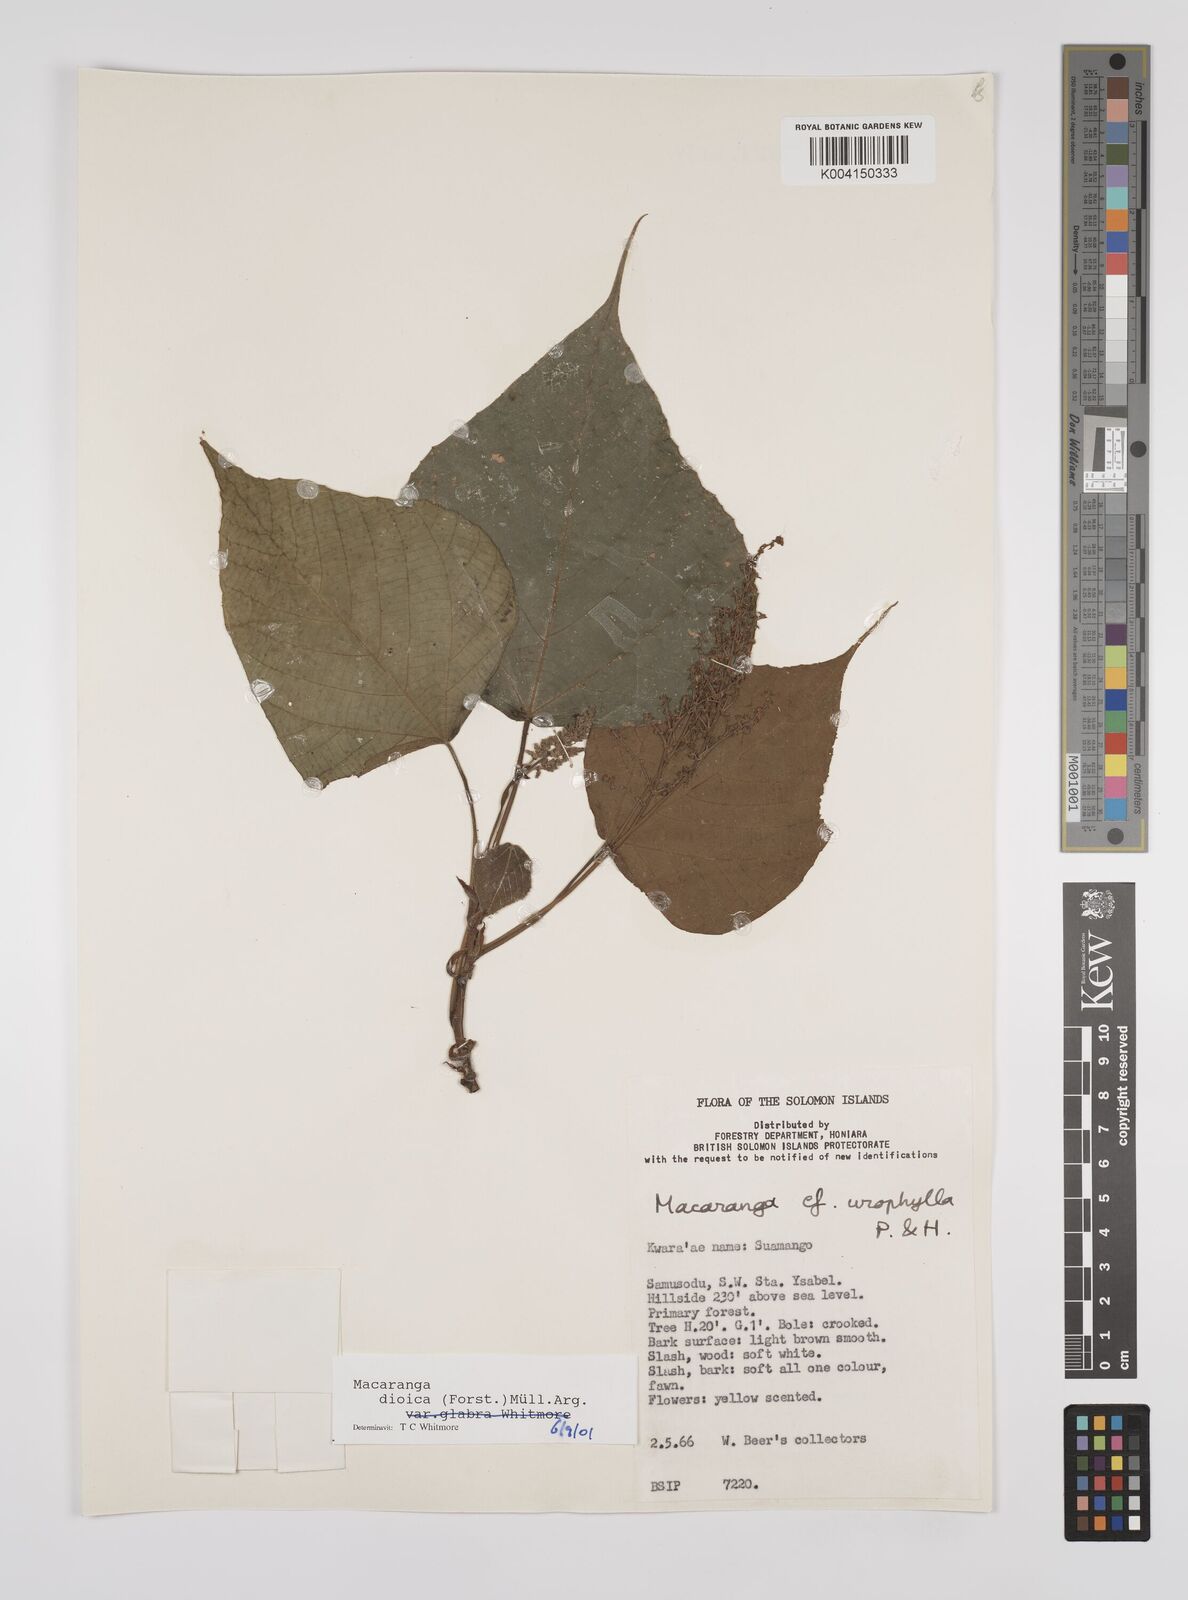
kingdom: Plantae
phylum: Tracheophyta
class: Magnoliopsida
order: Malpighiales
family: Euphorbiaceae
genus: Macaranga
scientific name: Macaranga dioica
